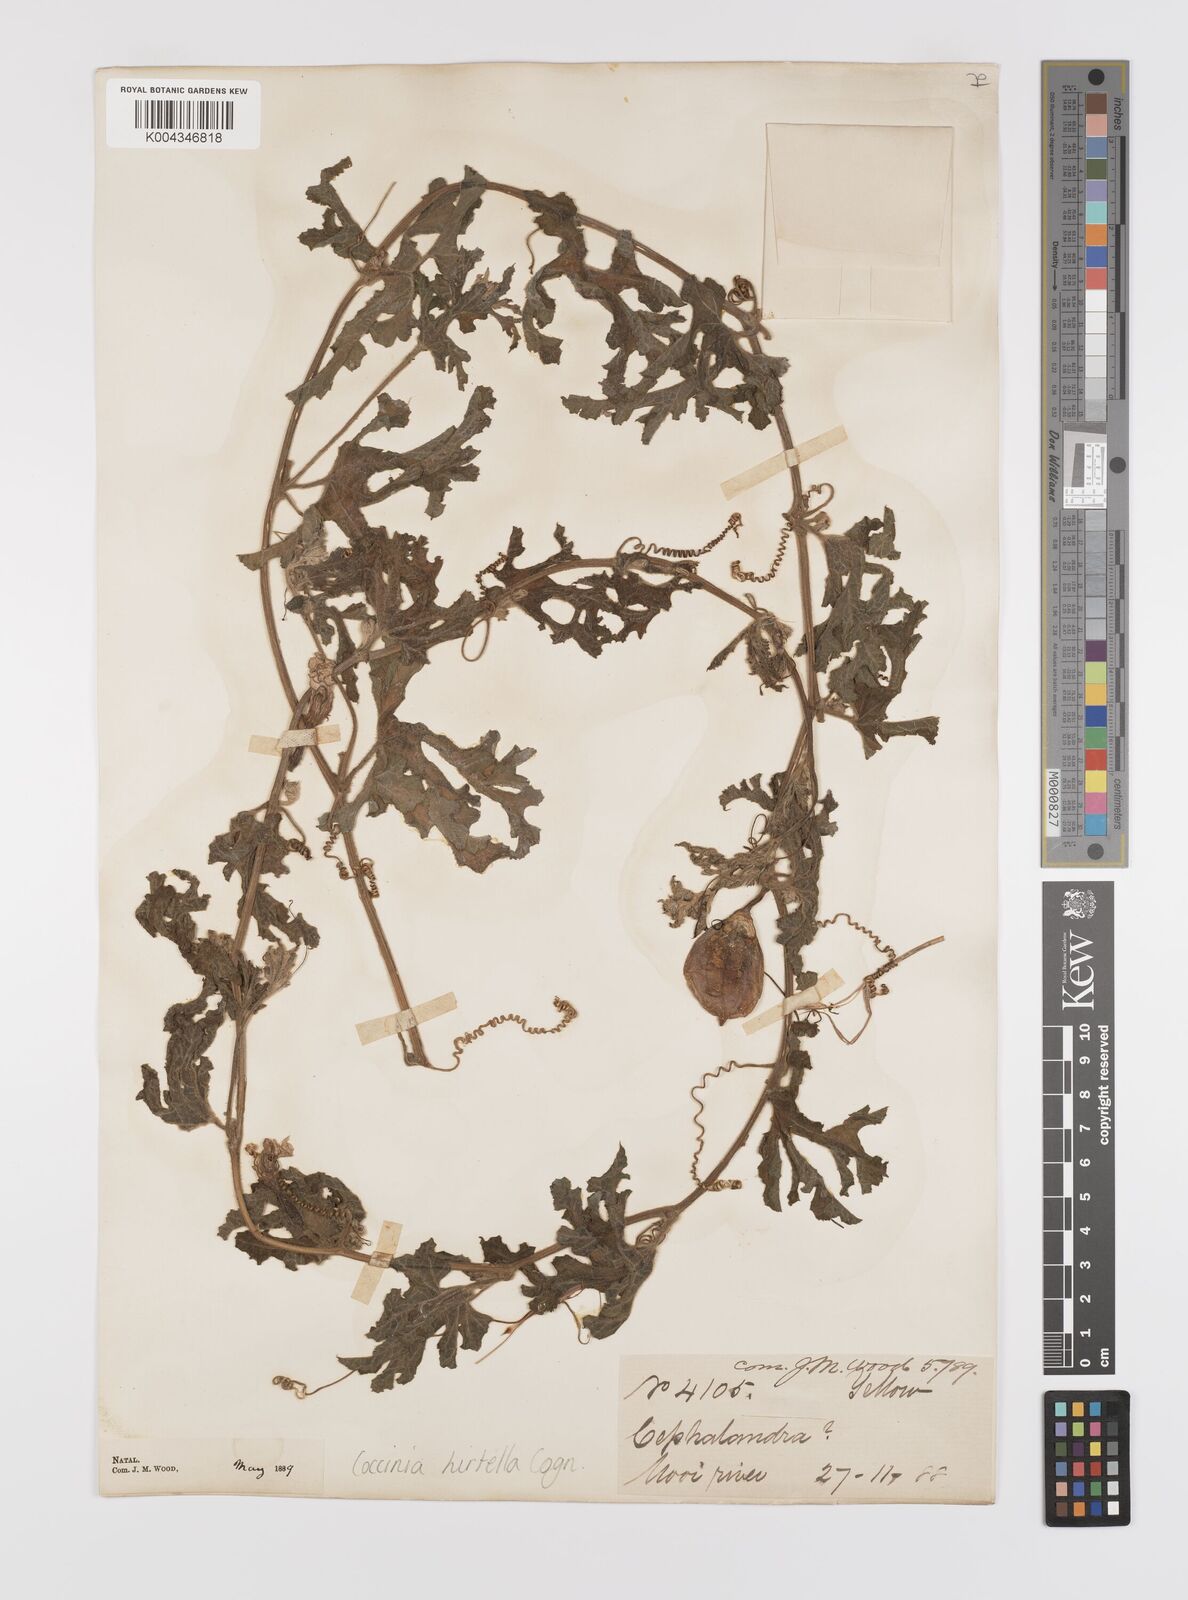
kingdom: Plantae
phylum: Tracheophyta
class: Magnoliopsida
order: Cucurbitales
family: Cucurbitaceae
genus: Coccinia
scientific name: Coccinia hirtella
